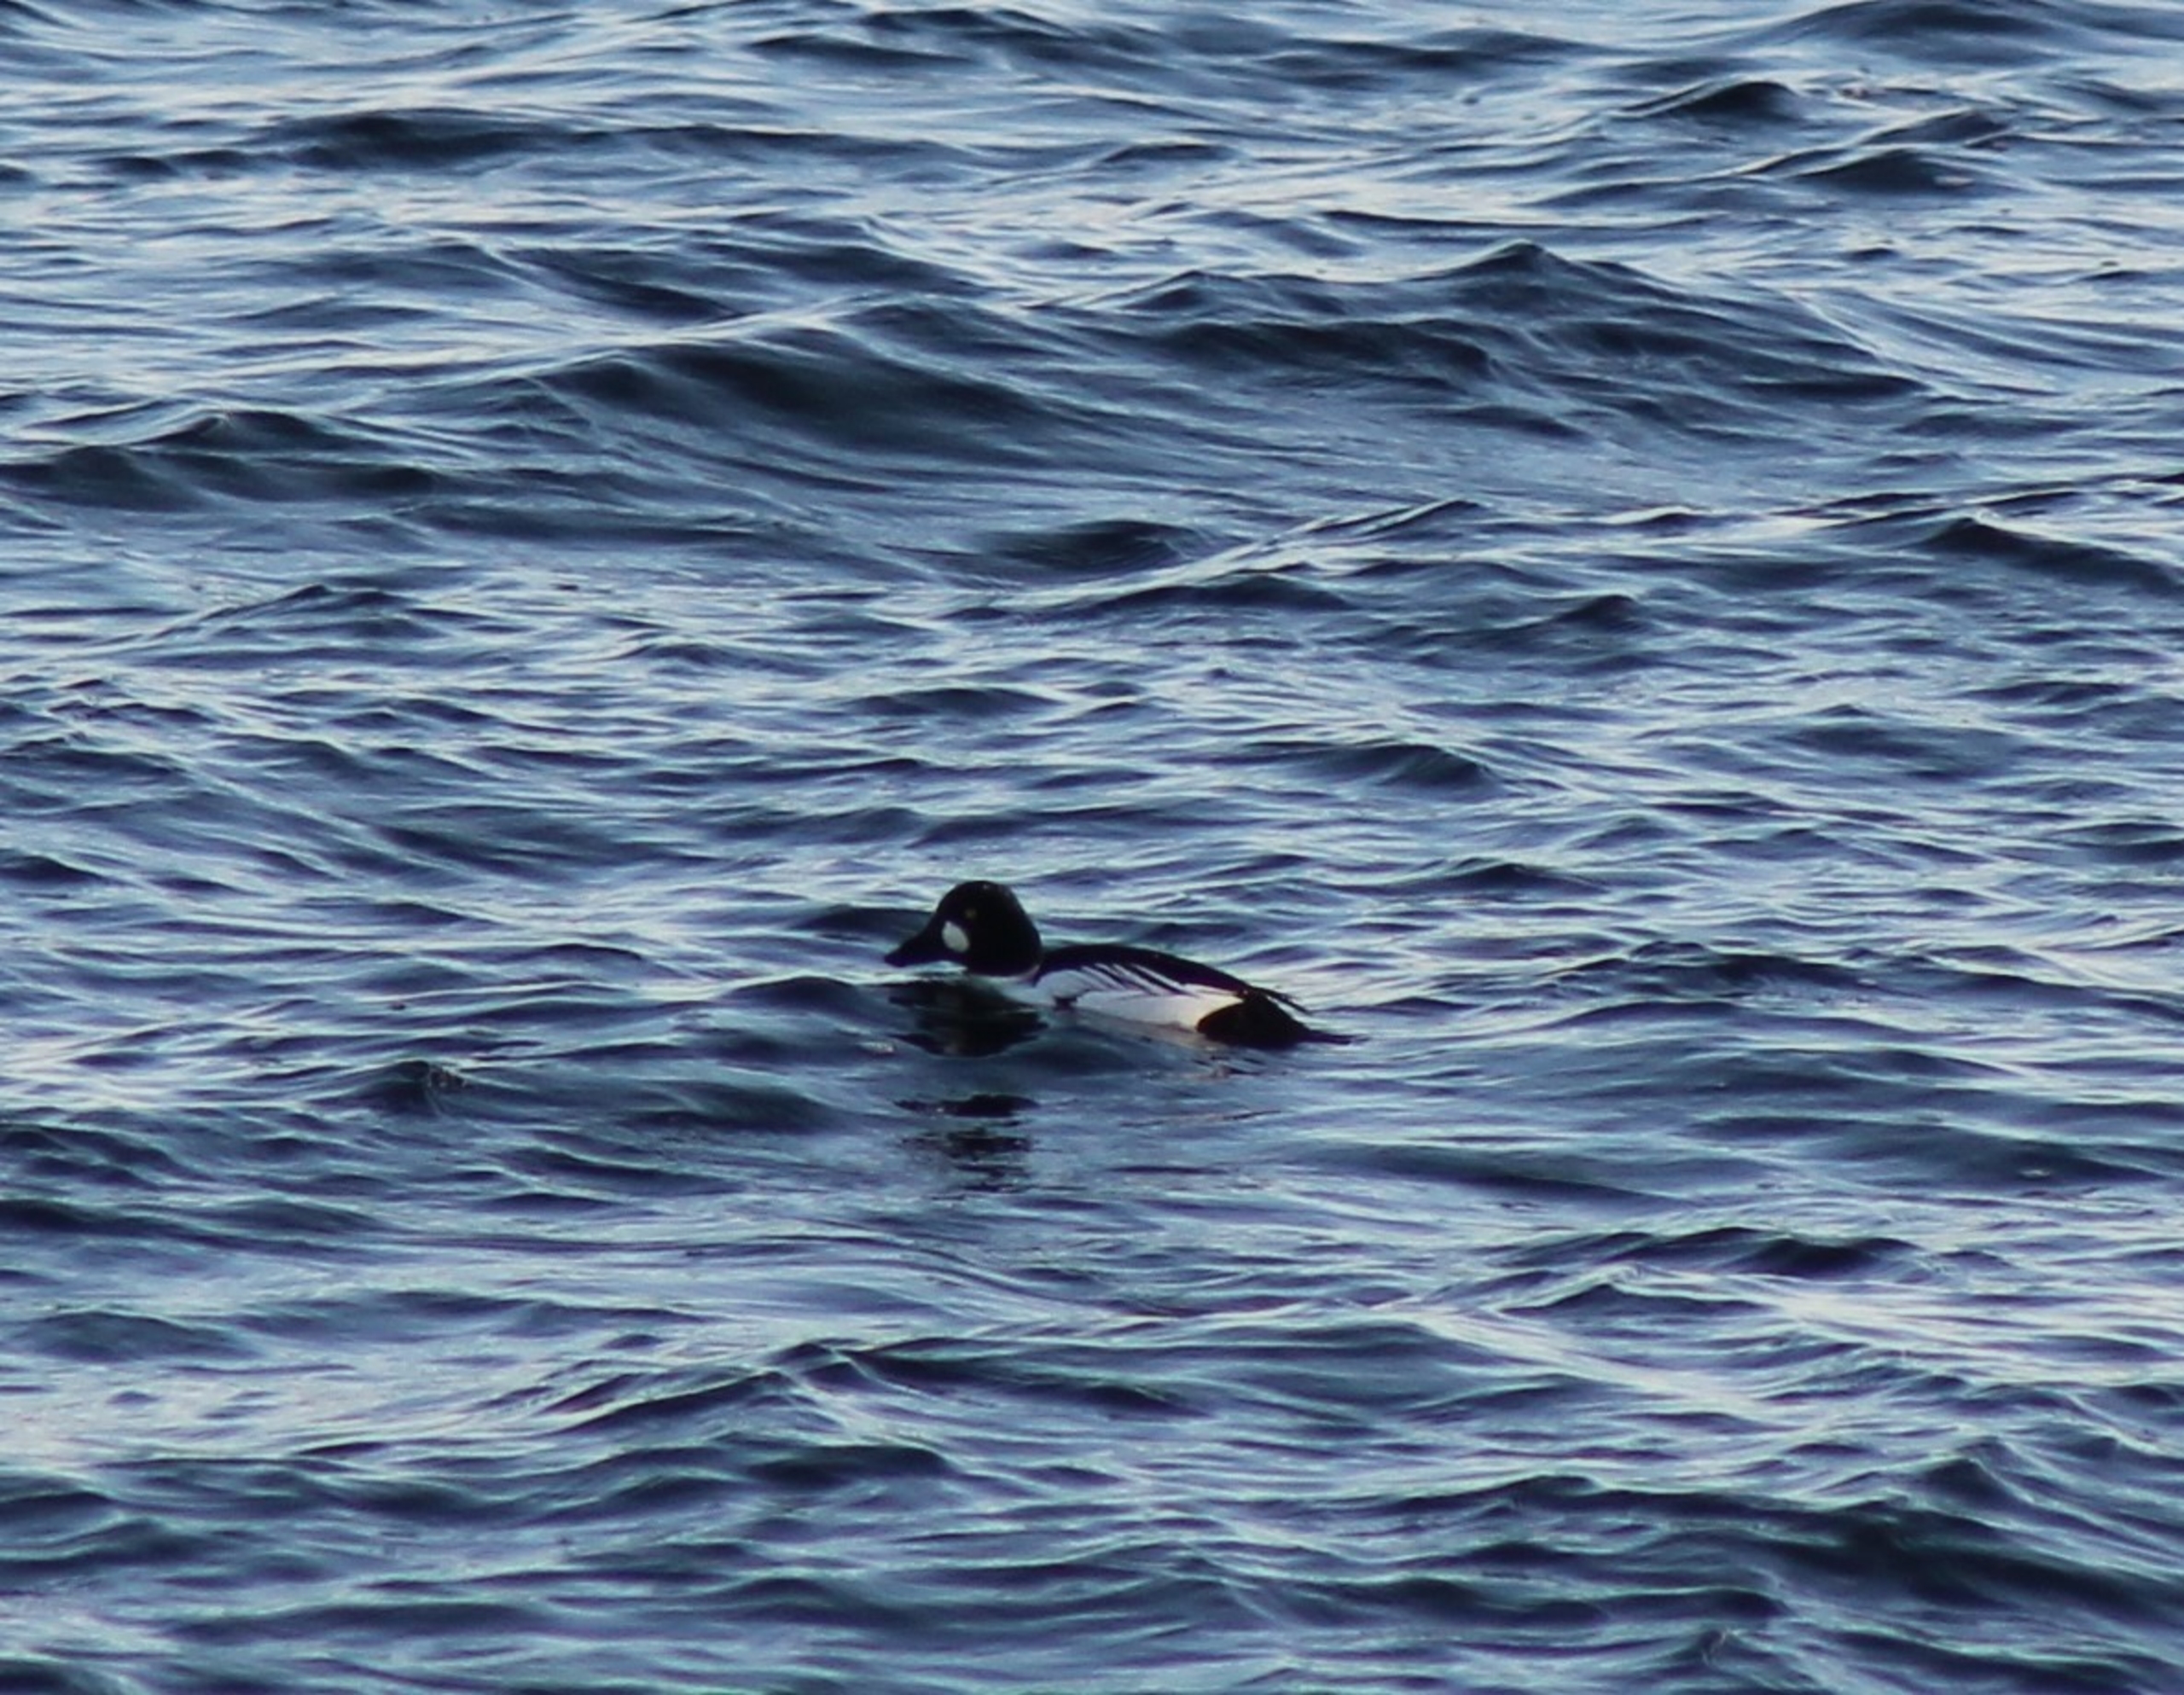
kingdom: Animalia
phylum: Chordata
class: Aves
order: Anseriformes
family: Anatidae
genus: Bucephala
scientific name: Bucephala clangula
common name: Hvinand
